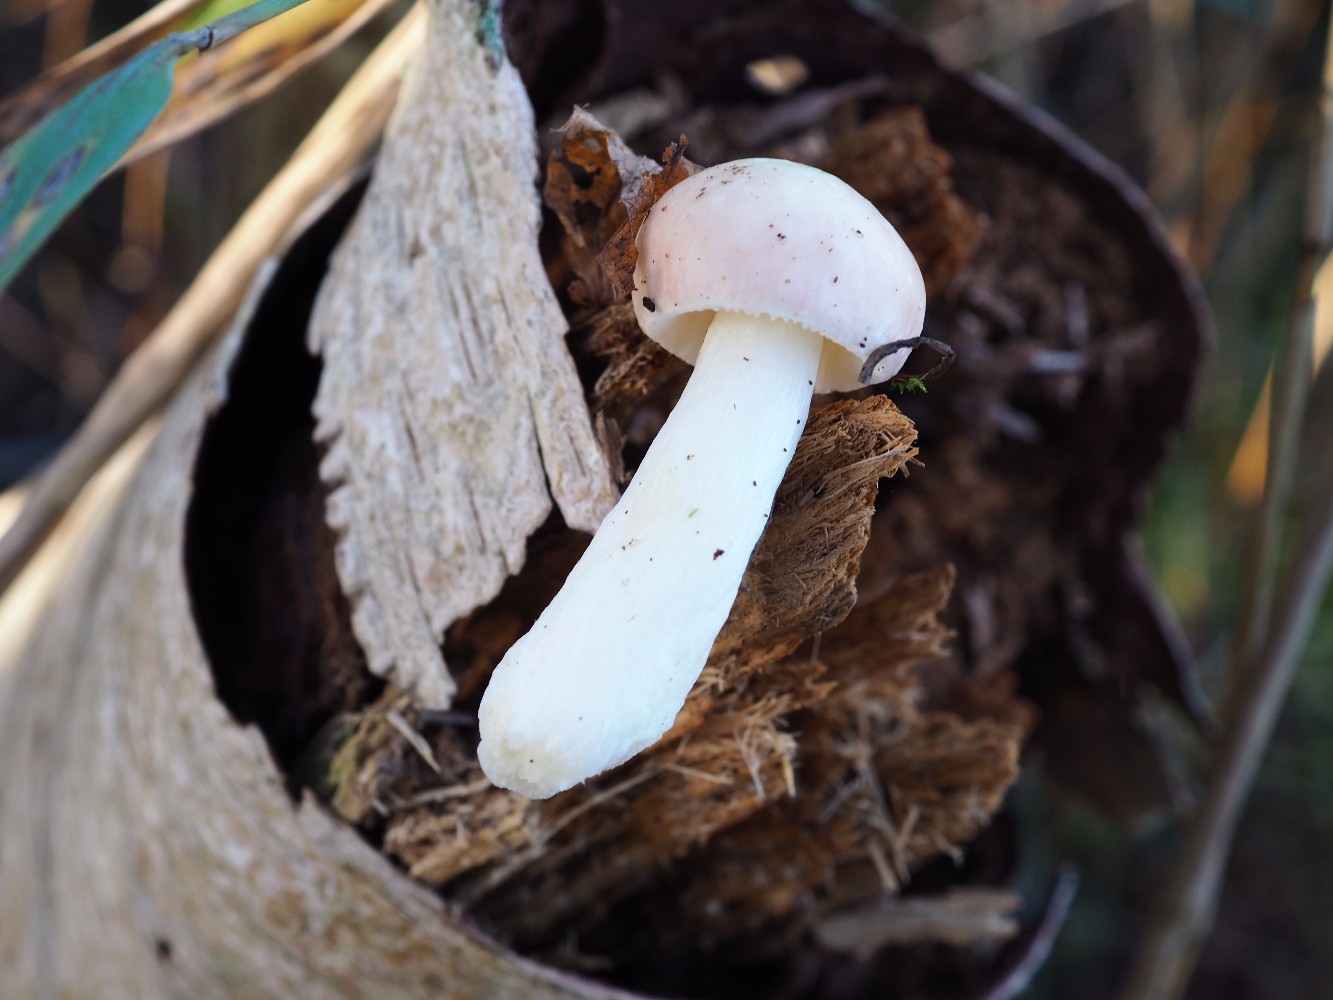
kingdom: Fungi
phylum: Basidiomycota
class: Agaricomycetes
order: Russulales
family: Russulaceae
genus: Russula
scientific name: Russula betularum
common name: bleg gift-skørhat
